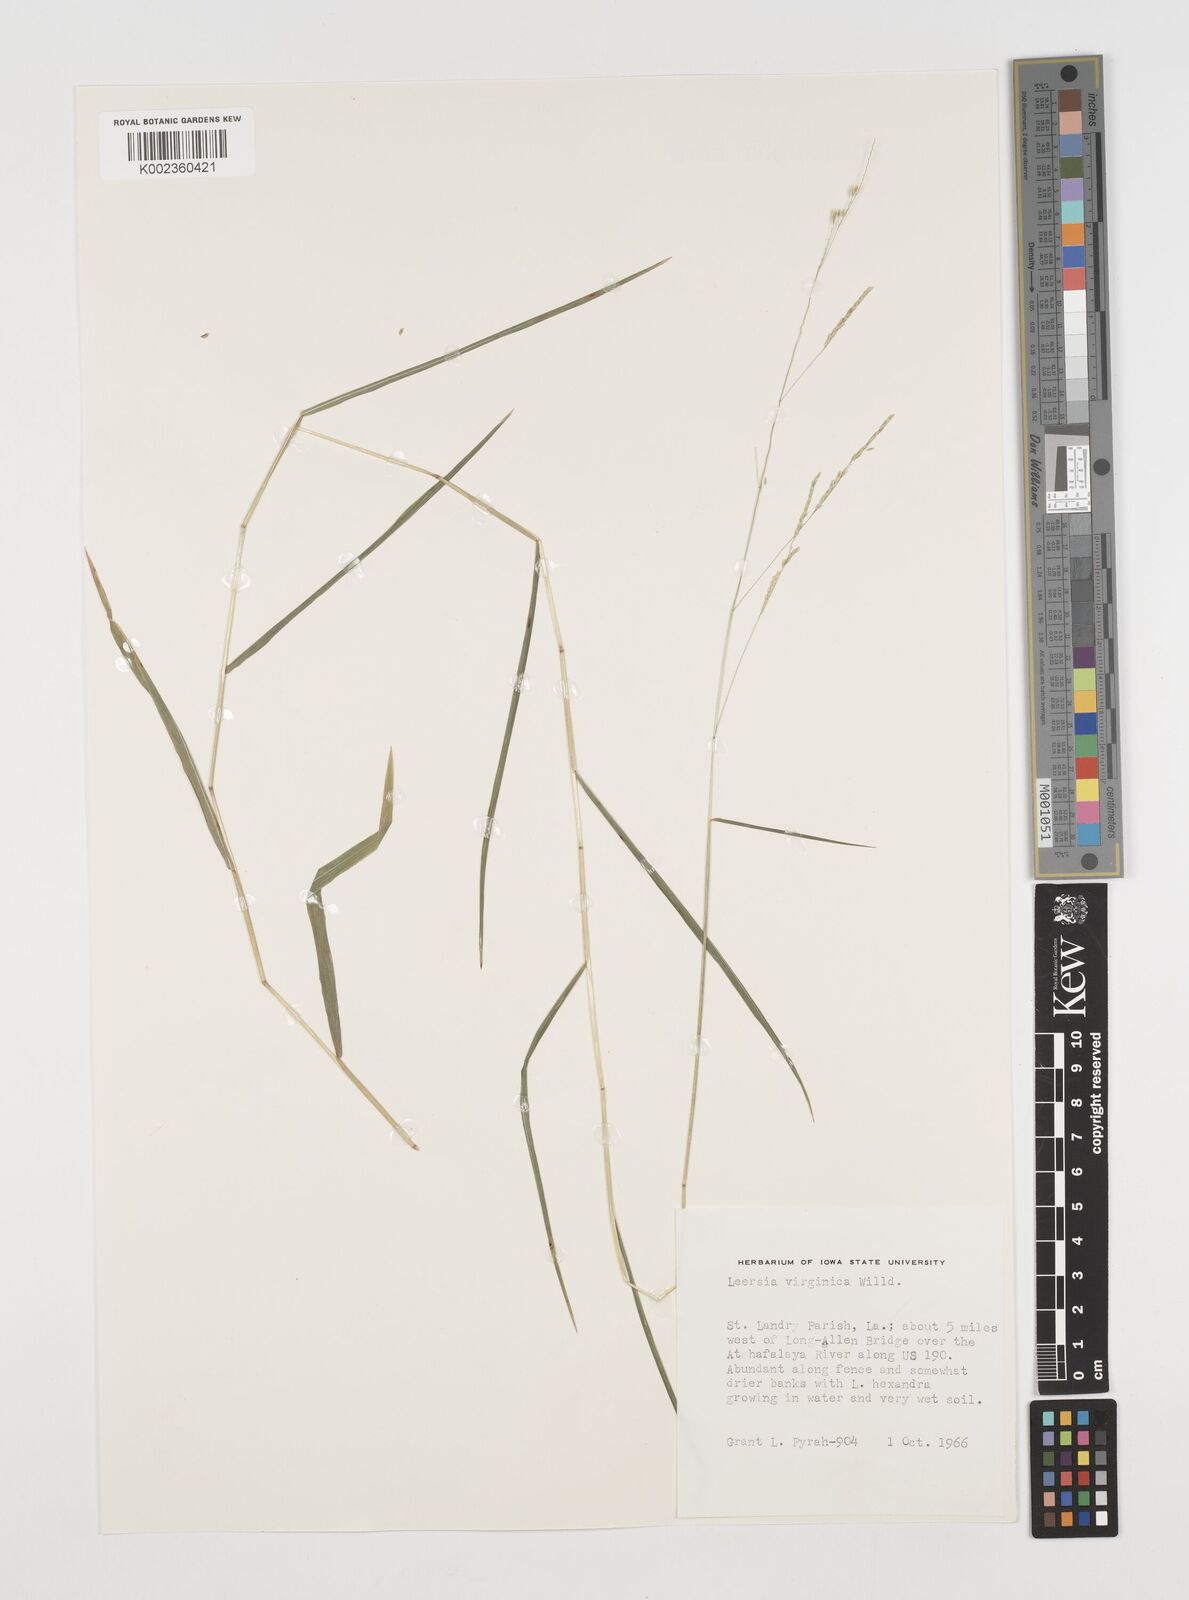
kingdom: Plantae
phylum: Tracheophyta
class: Liliopsida
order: Poales
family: Poaceae
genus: Leersia
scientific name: Leersia virginica
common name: White cutgrass
